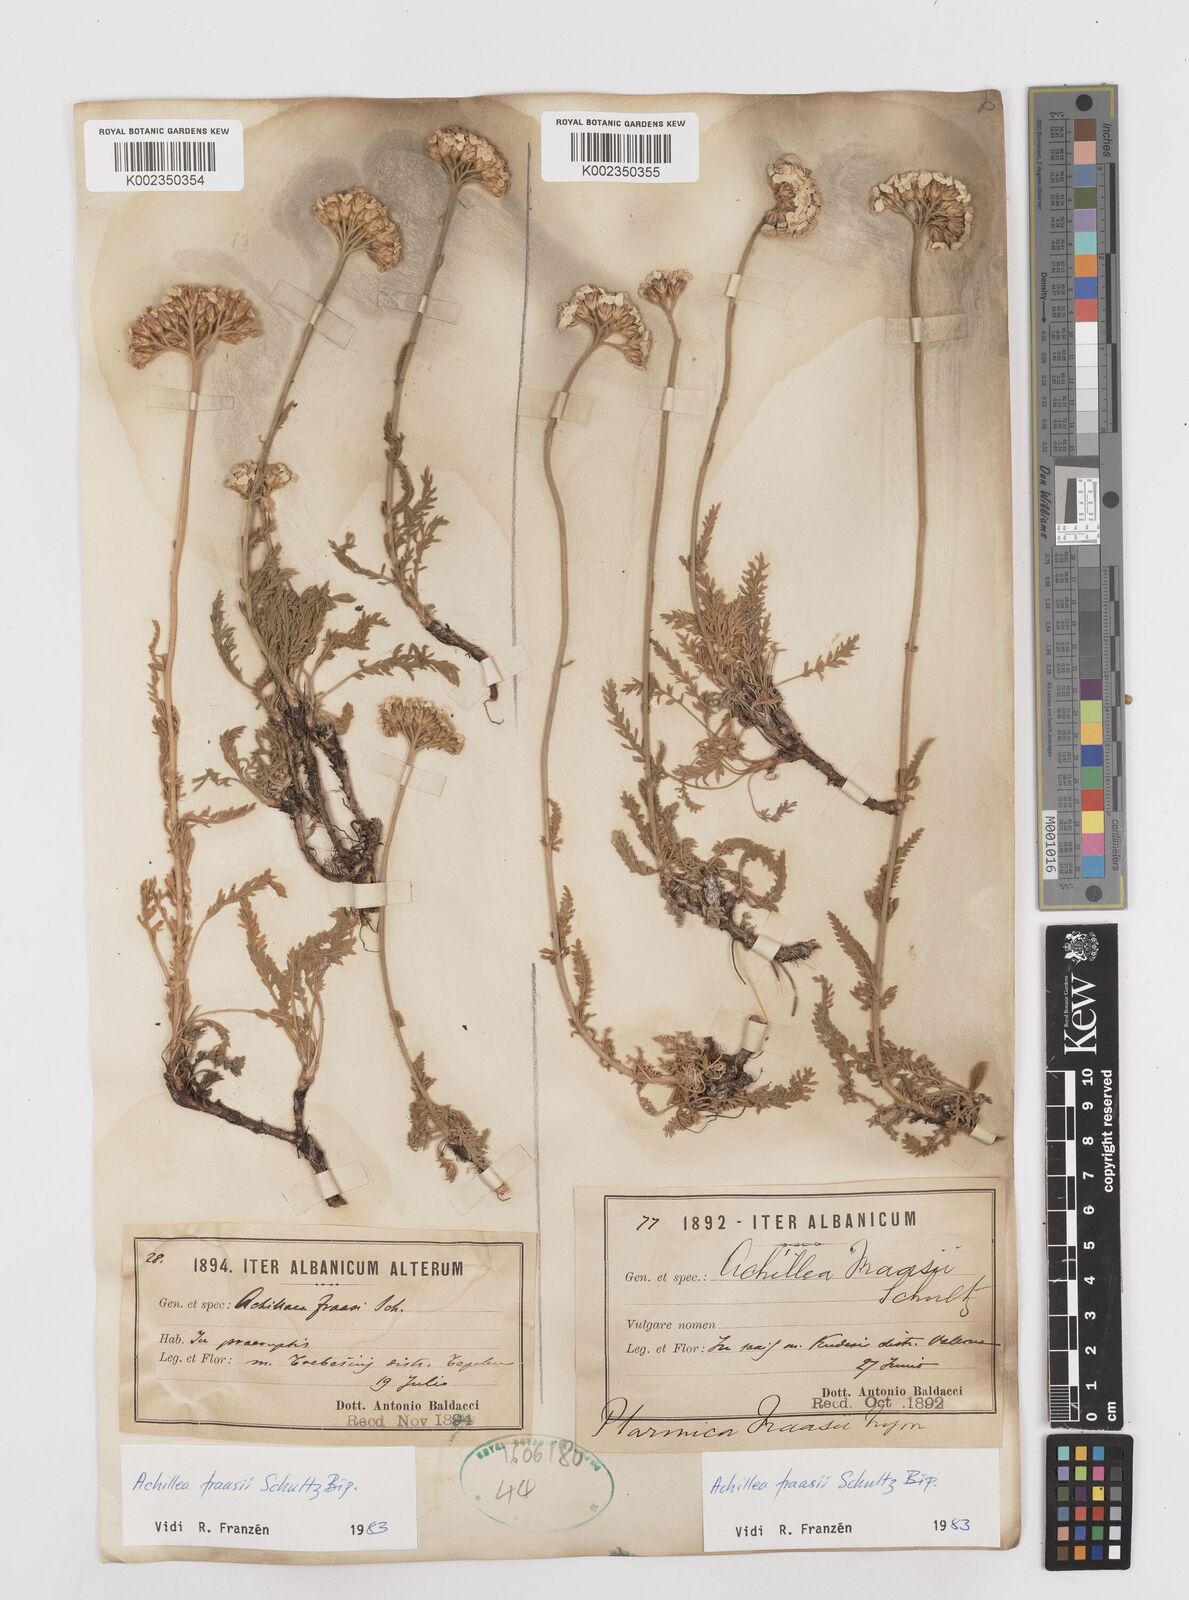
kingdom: Plantae
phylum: Tracheophyta
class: Magnoliopsida
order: Asterales
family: Asteraceae
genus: Achillea
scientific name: Achillea fraasii
